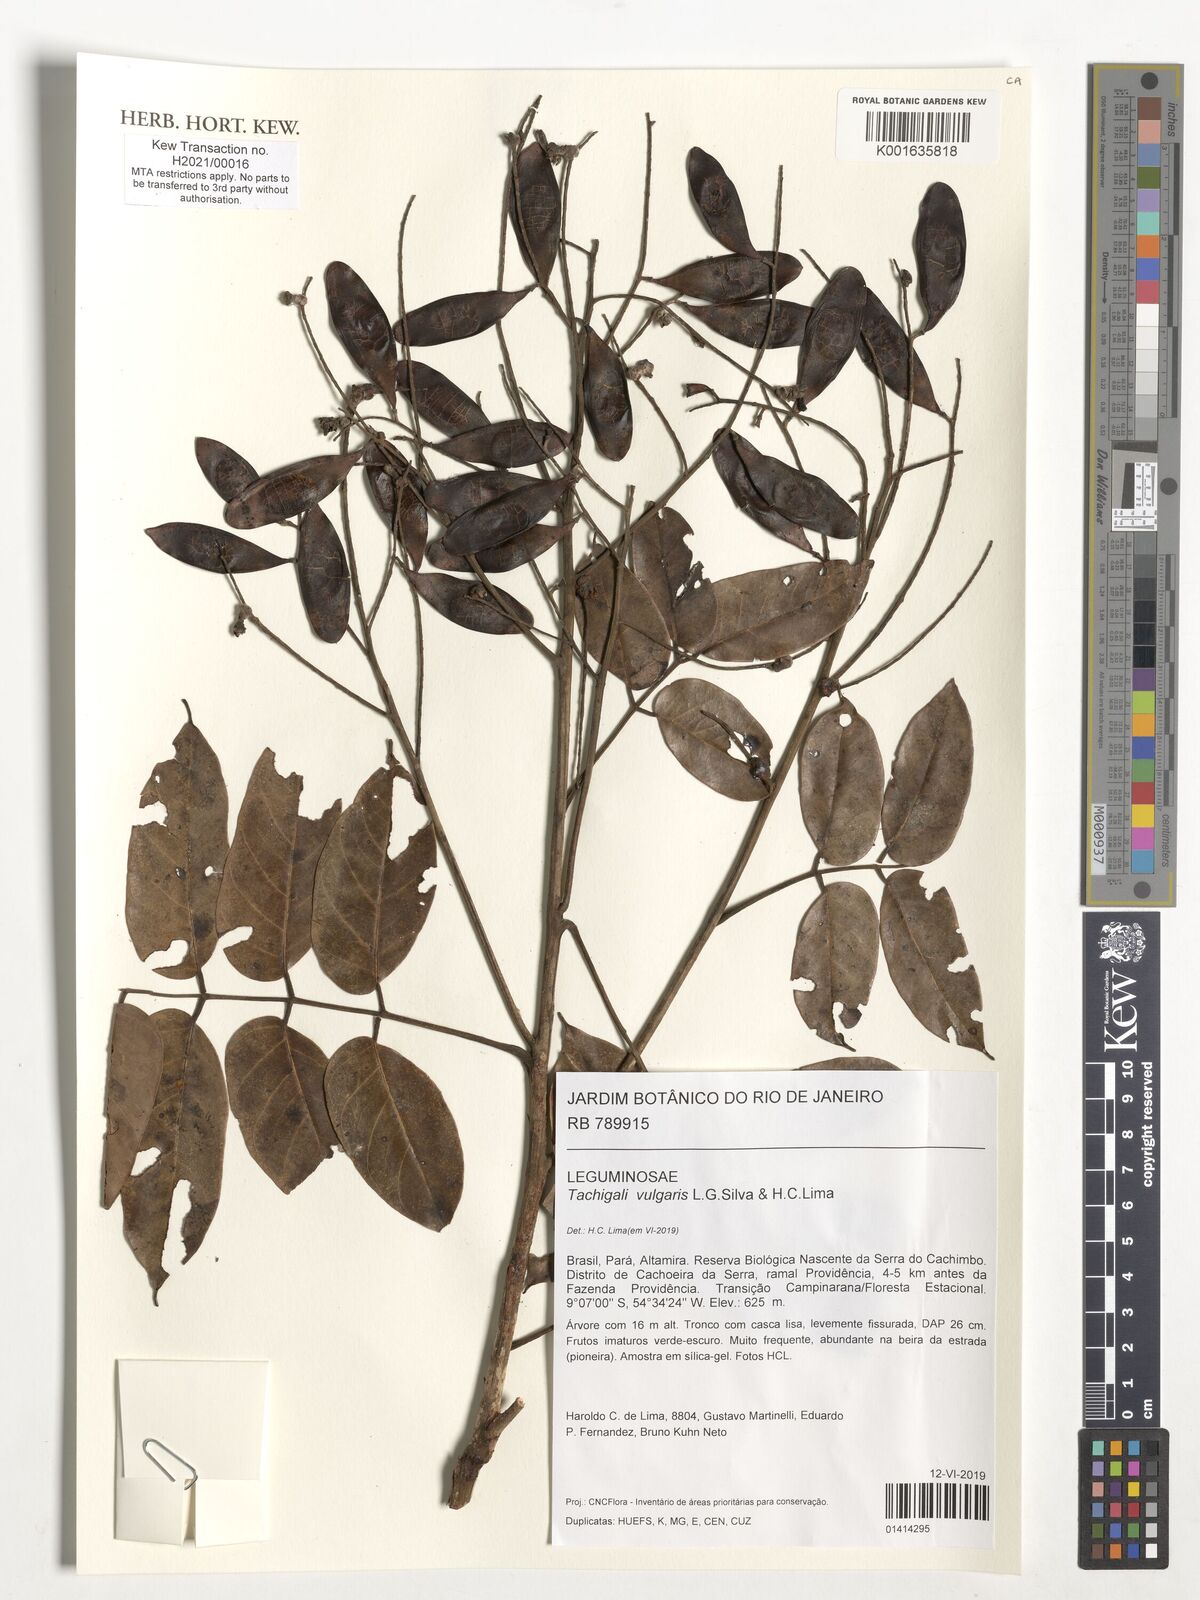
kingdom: Plantae
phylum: Tracheophyta
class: Magnoliopsida
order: Fabales
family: Fabaceae
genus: Tachigali
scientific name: Tachigali vulgaris
